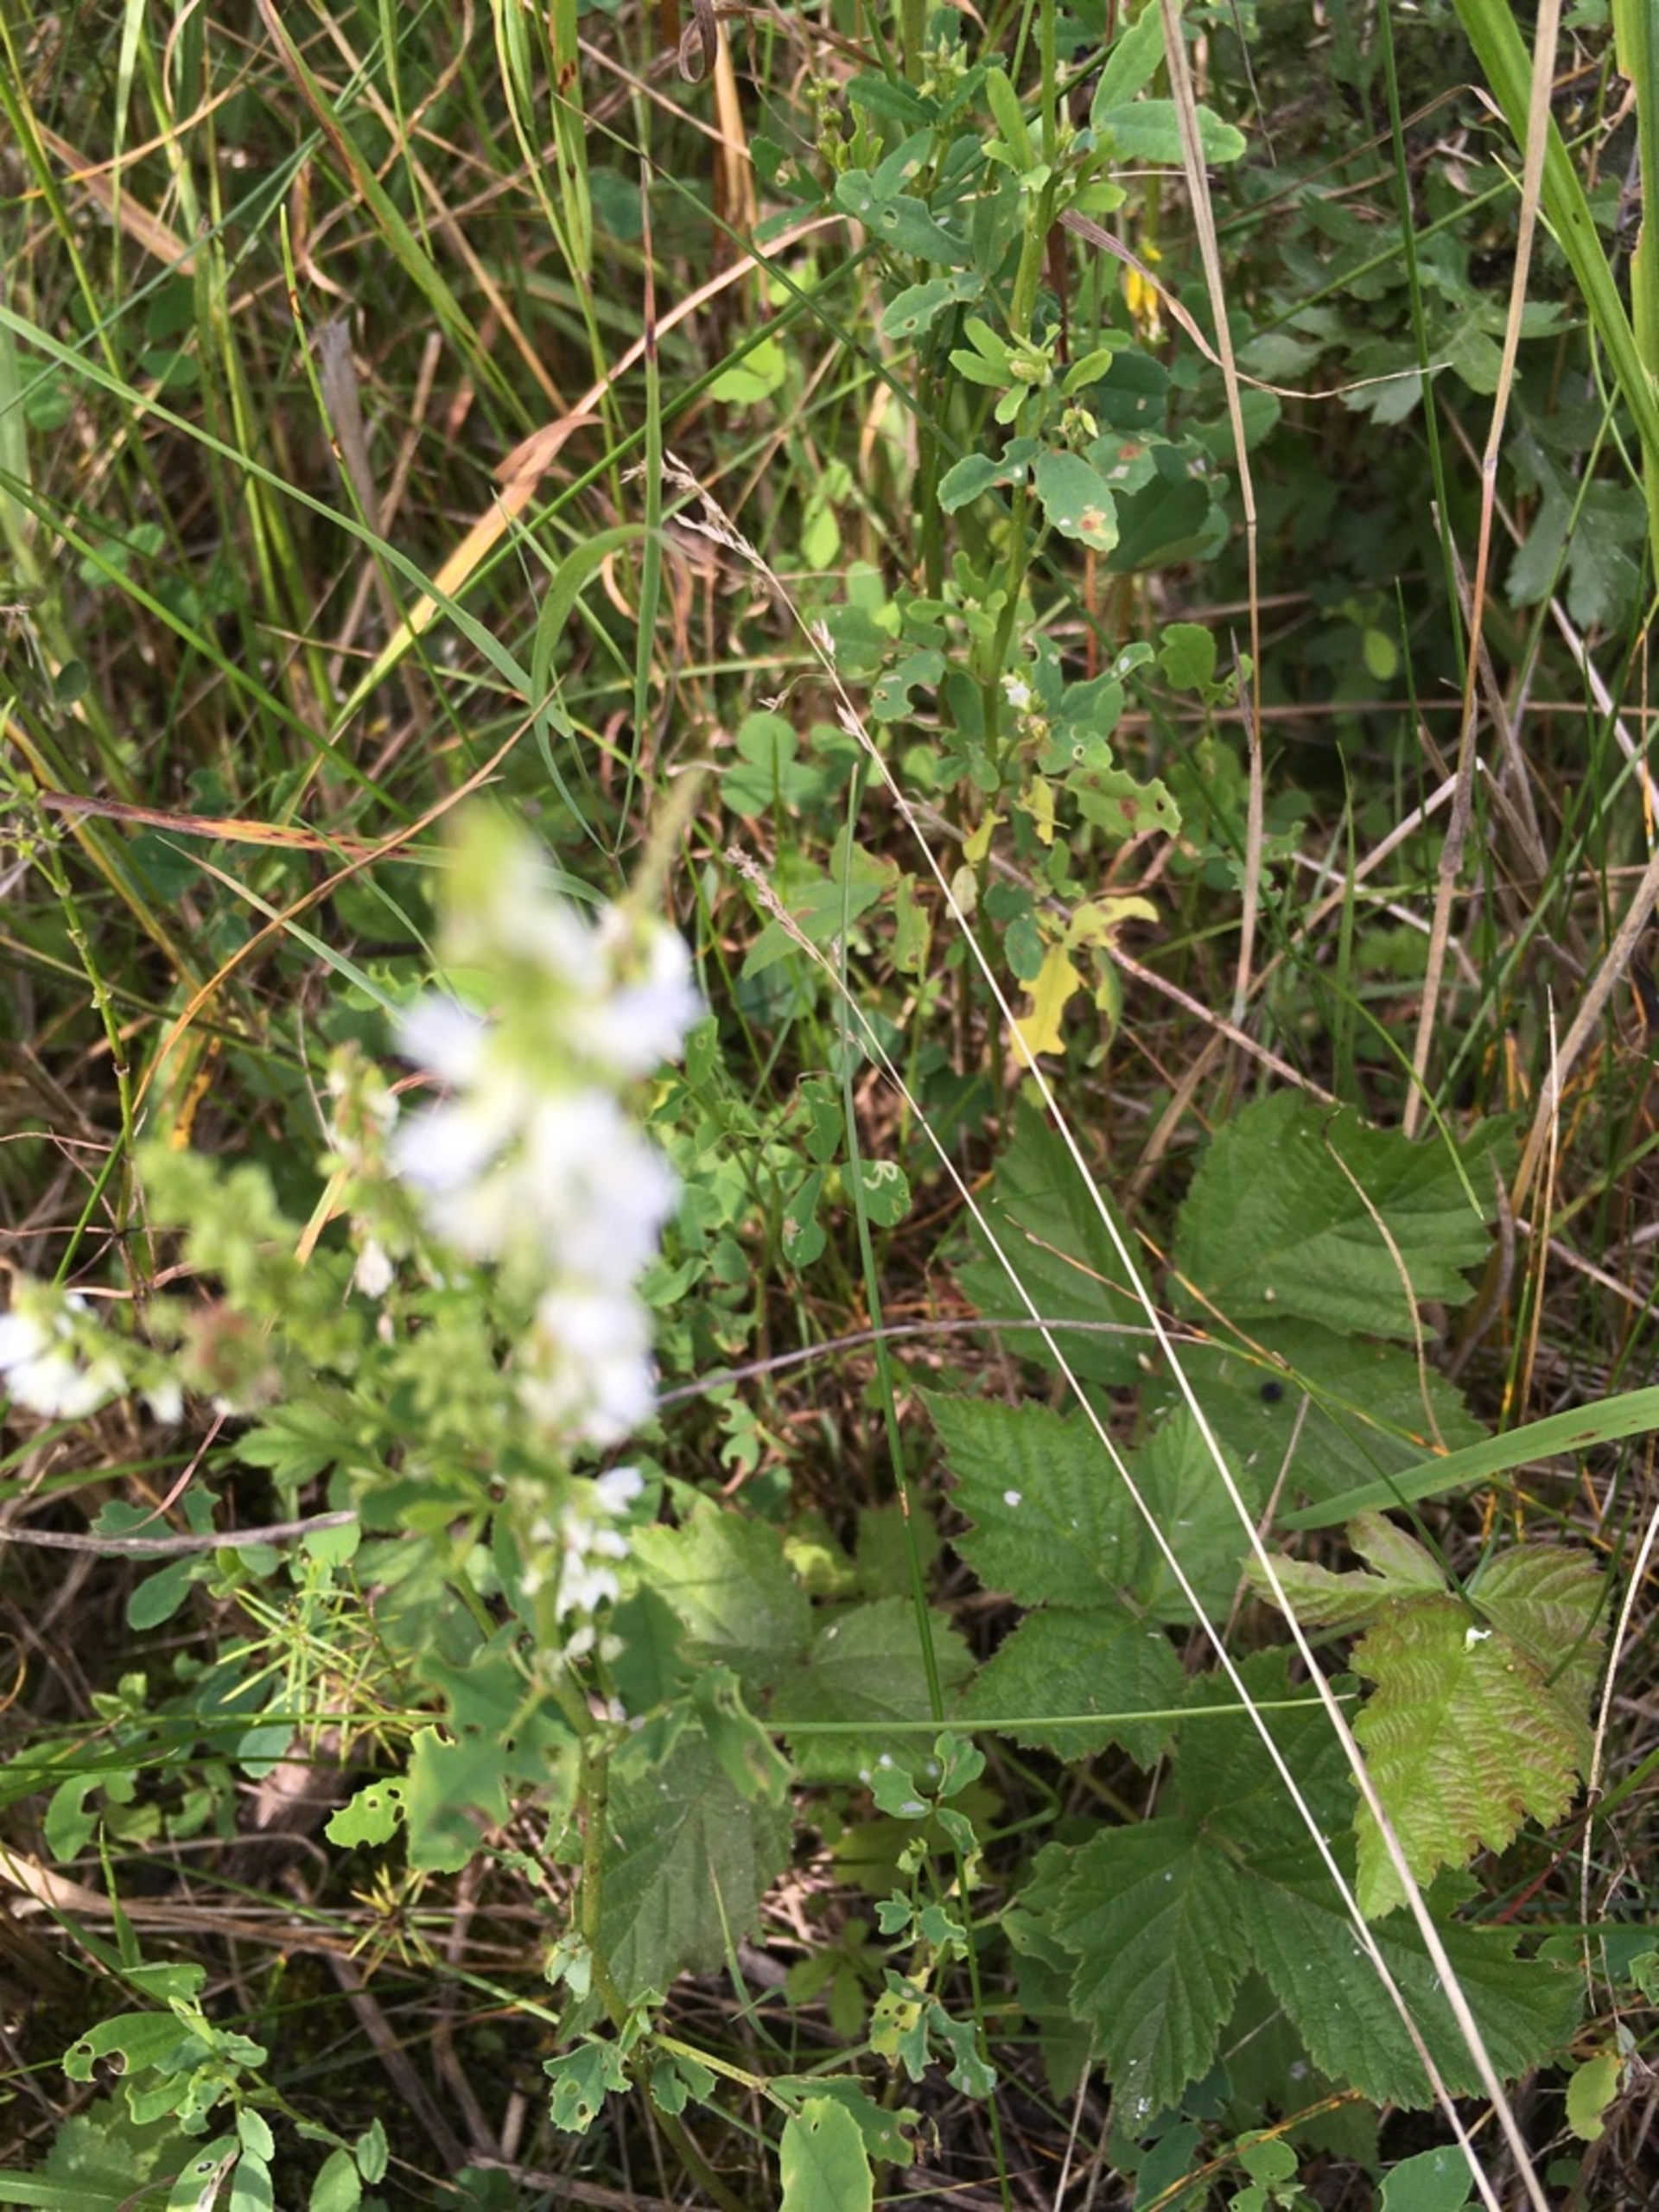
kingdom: Plantae
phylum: Tracheophyta
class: Magnoliopsida
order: Fabales
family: Fabaceae
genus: Melilotus
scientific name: Melilotus albus
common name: Hvid stenkløver
